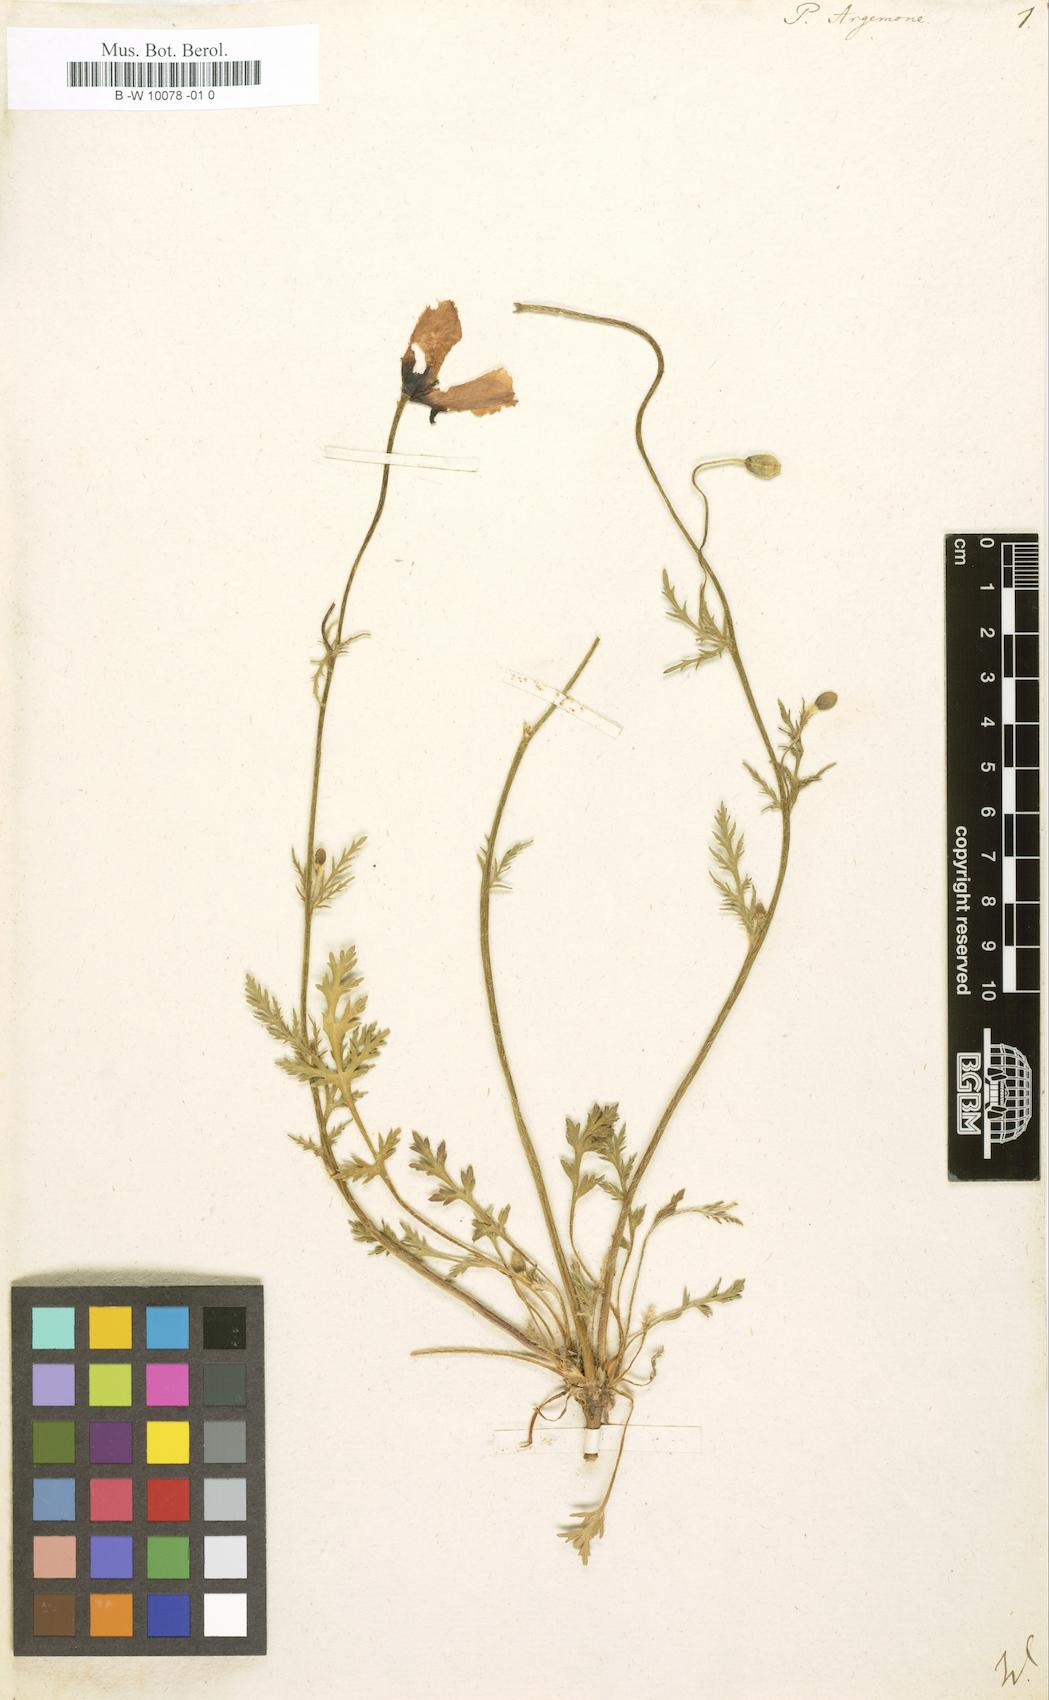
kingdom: Plantae
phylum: Tracheophyta
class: Magnoliopsida
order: Ranunculales
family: Papaveraceae
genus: Roemeria
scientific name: Roemeria argemone
